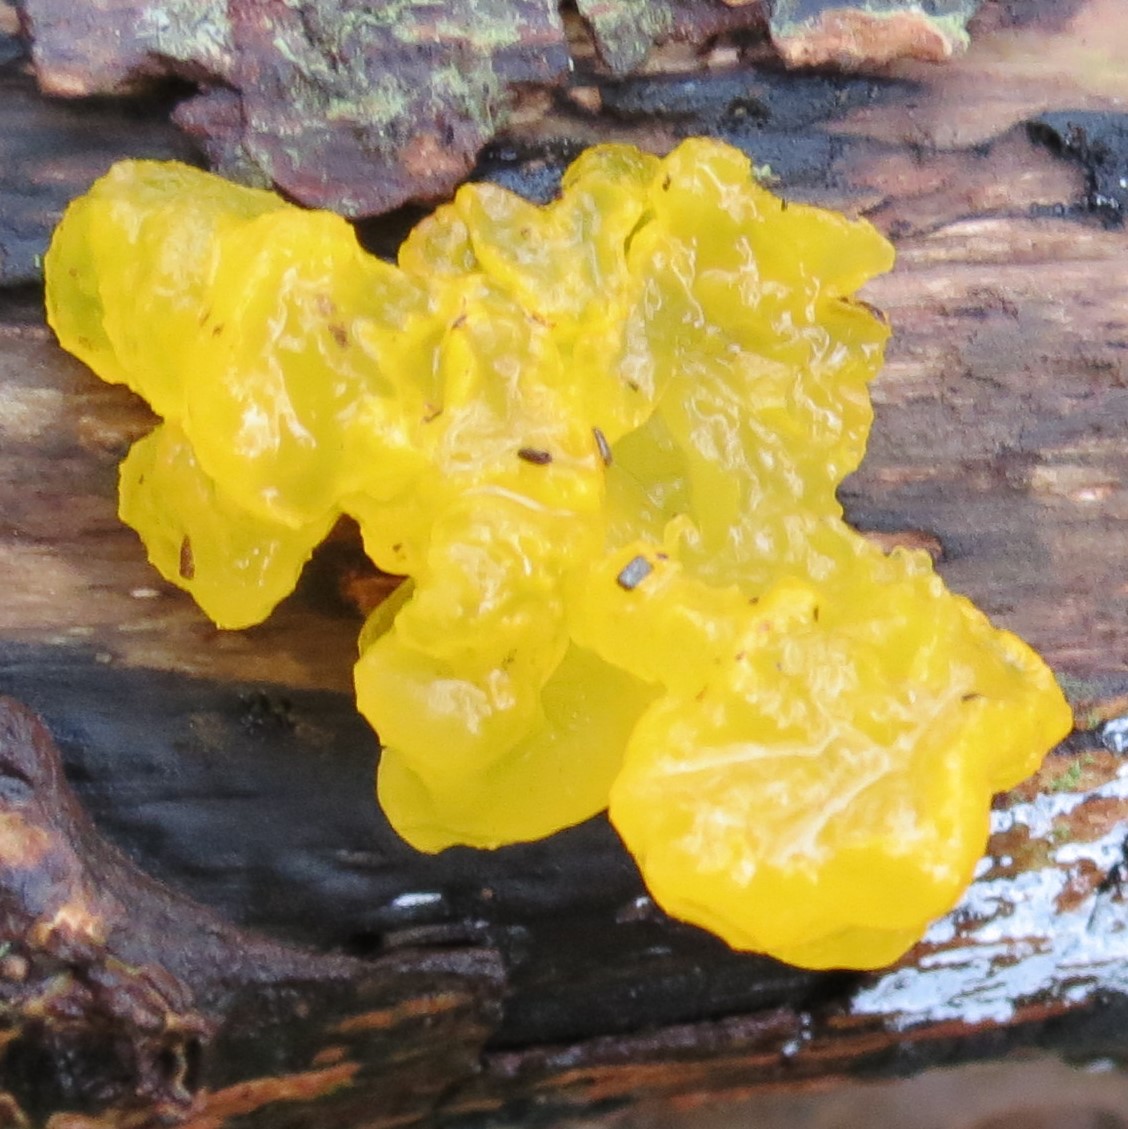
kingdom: Fungi
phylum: Basidiomycota
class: Tremellomycetes
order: Tremellales
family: Tremellaceae
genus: Tremella
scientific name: Tremella mesenterica
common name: gul bævresvamp
